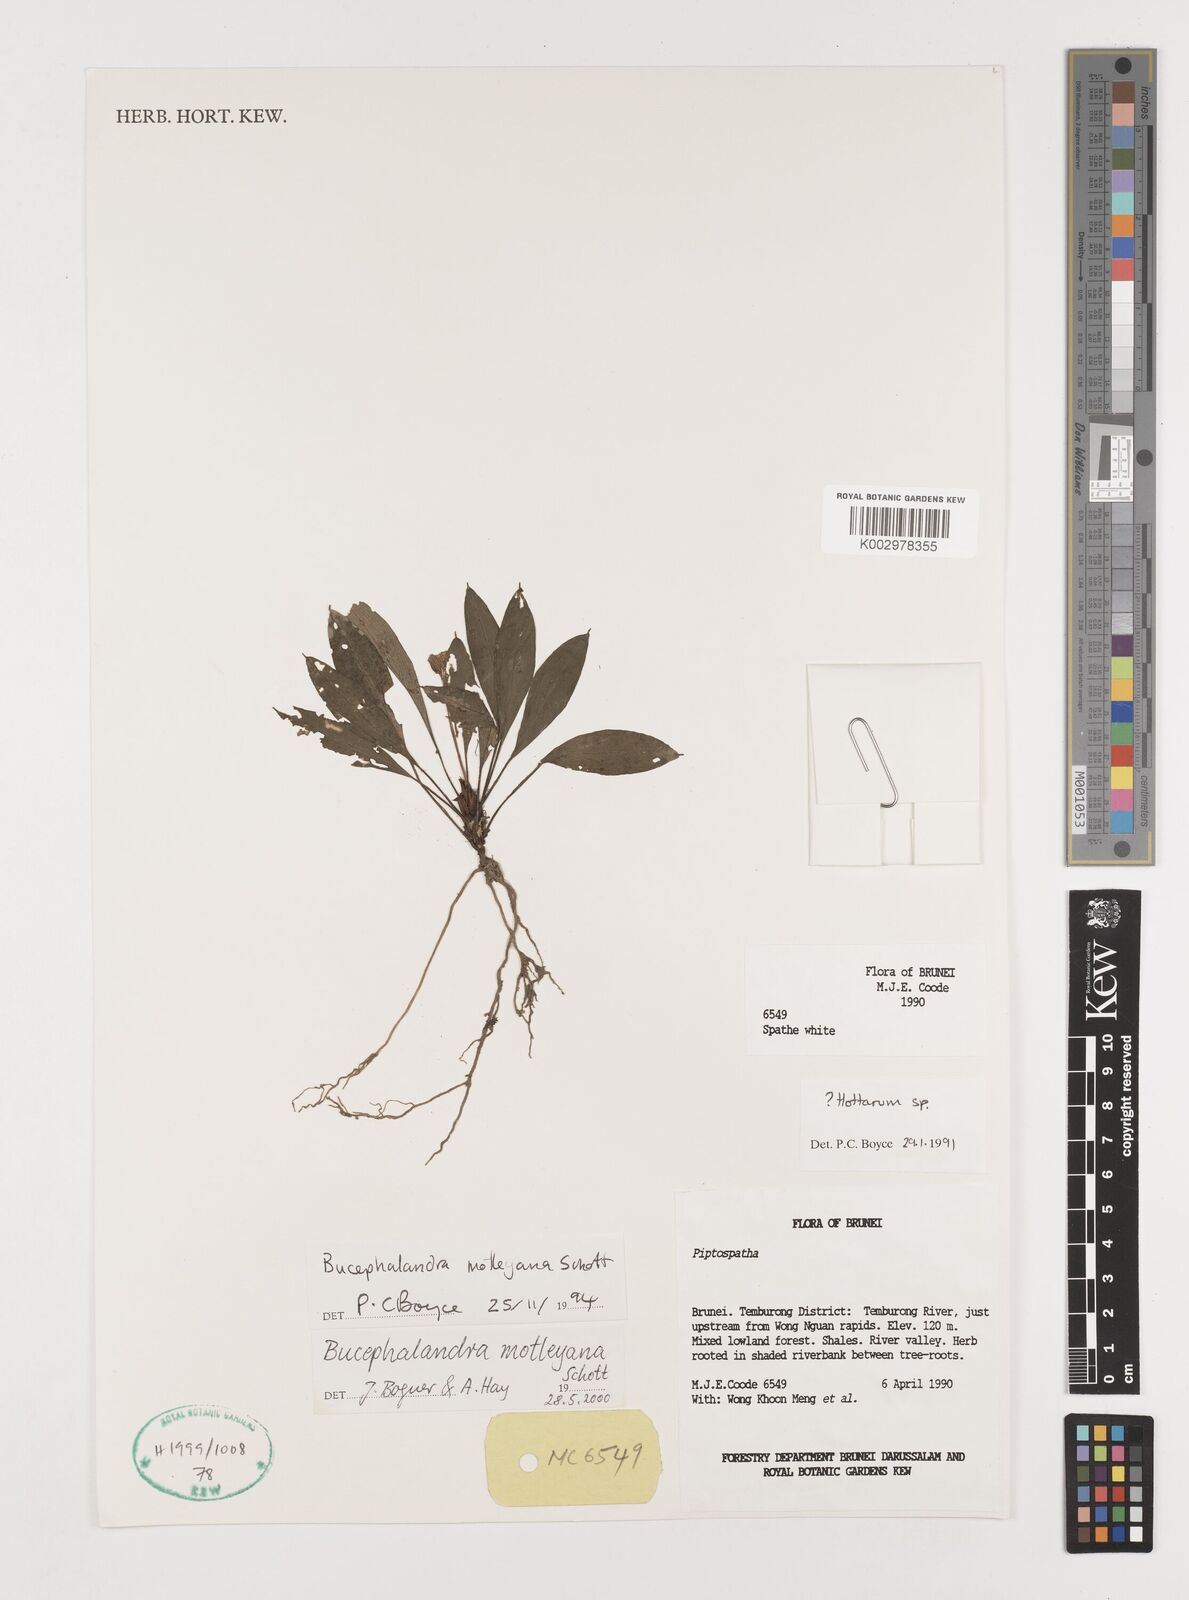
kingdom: Plantae
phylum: Tracheophyta
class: Liliopsida
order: Alismatales
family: Araceae
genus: Bucephalandra
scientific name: Bucephalandra motleyana
